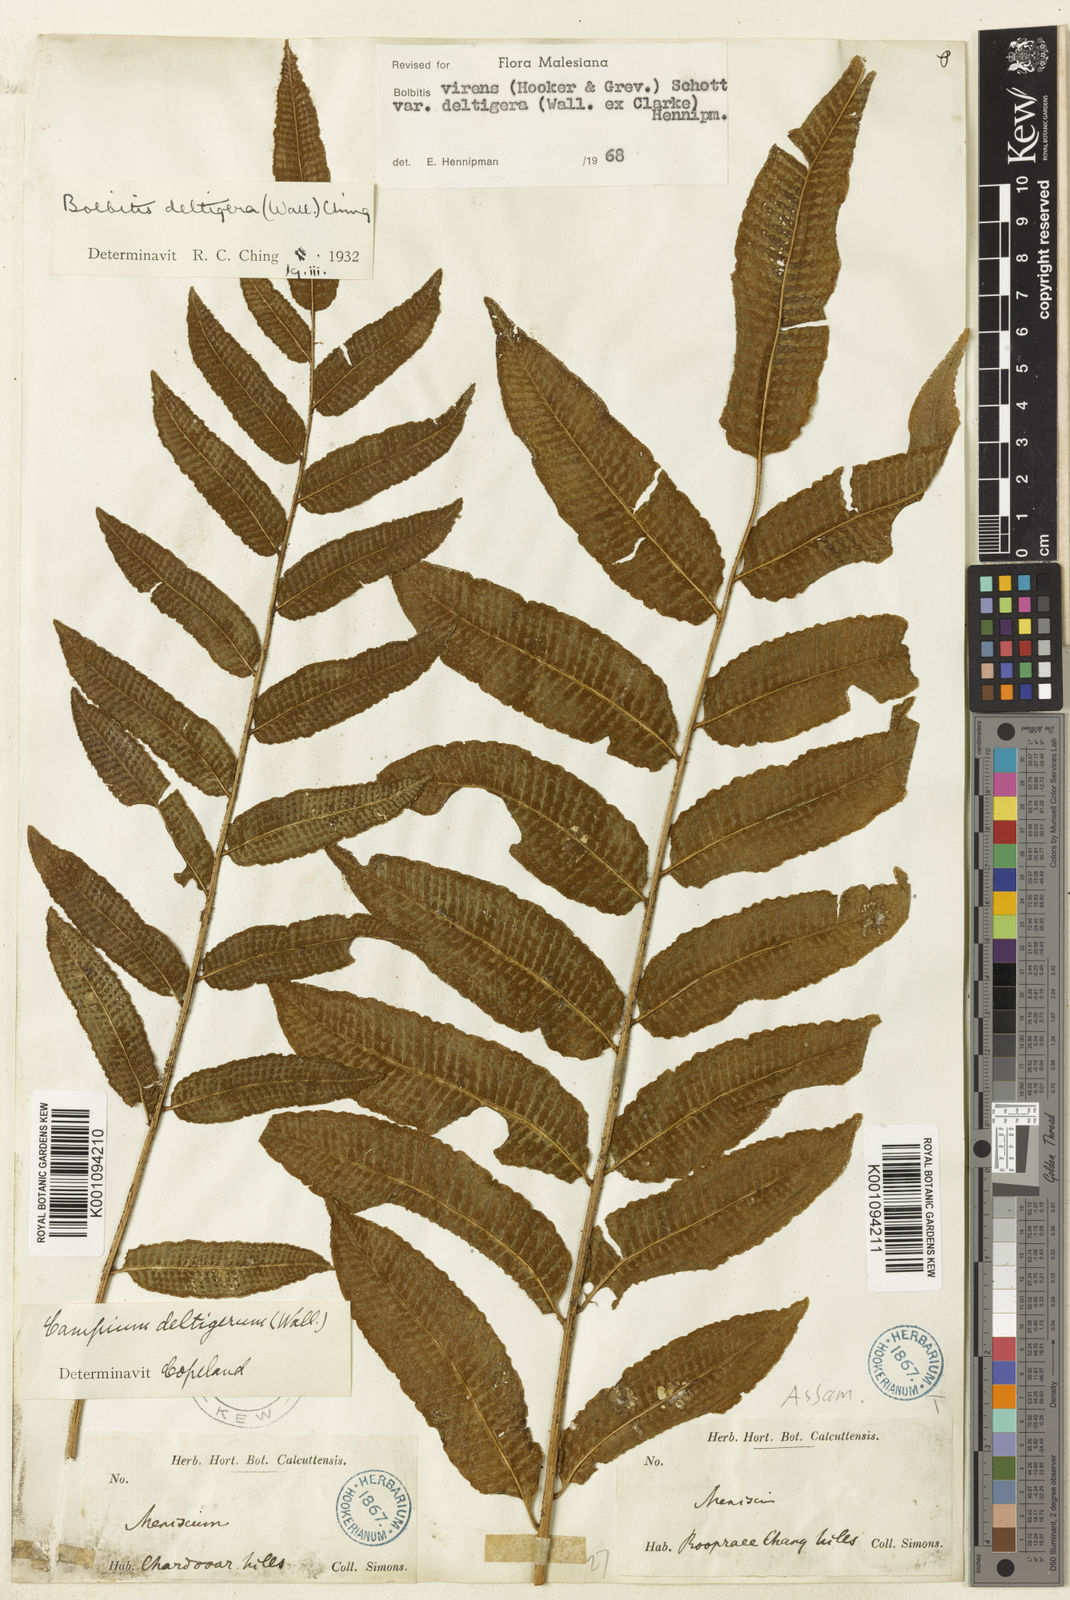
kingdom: Plantae
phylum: Tracheophyta
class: Polypodiopsida
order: Polypodiales
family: Dryopteridaceae
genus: Bolbitis
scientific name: Bolbitis deltigera
